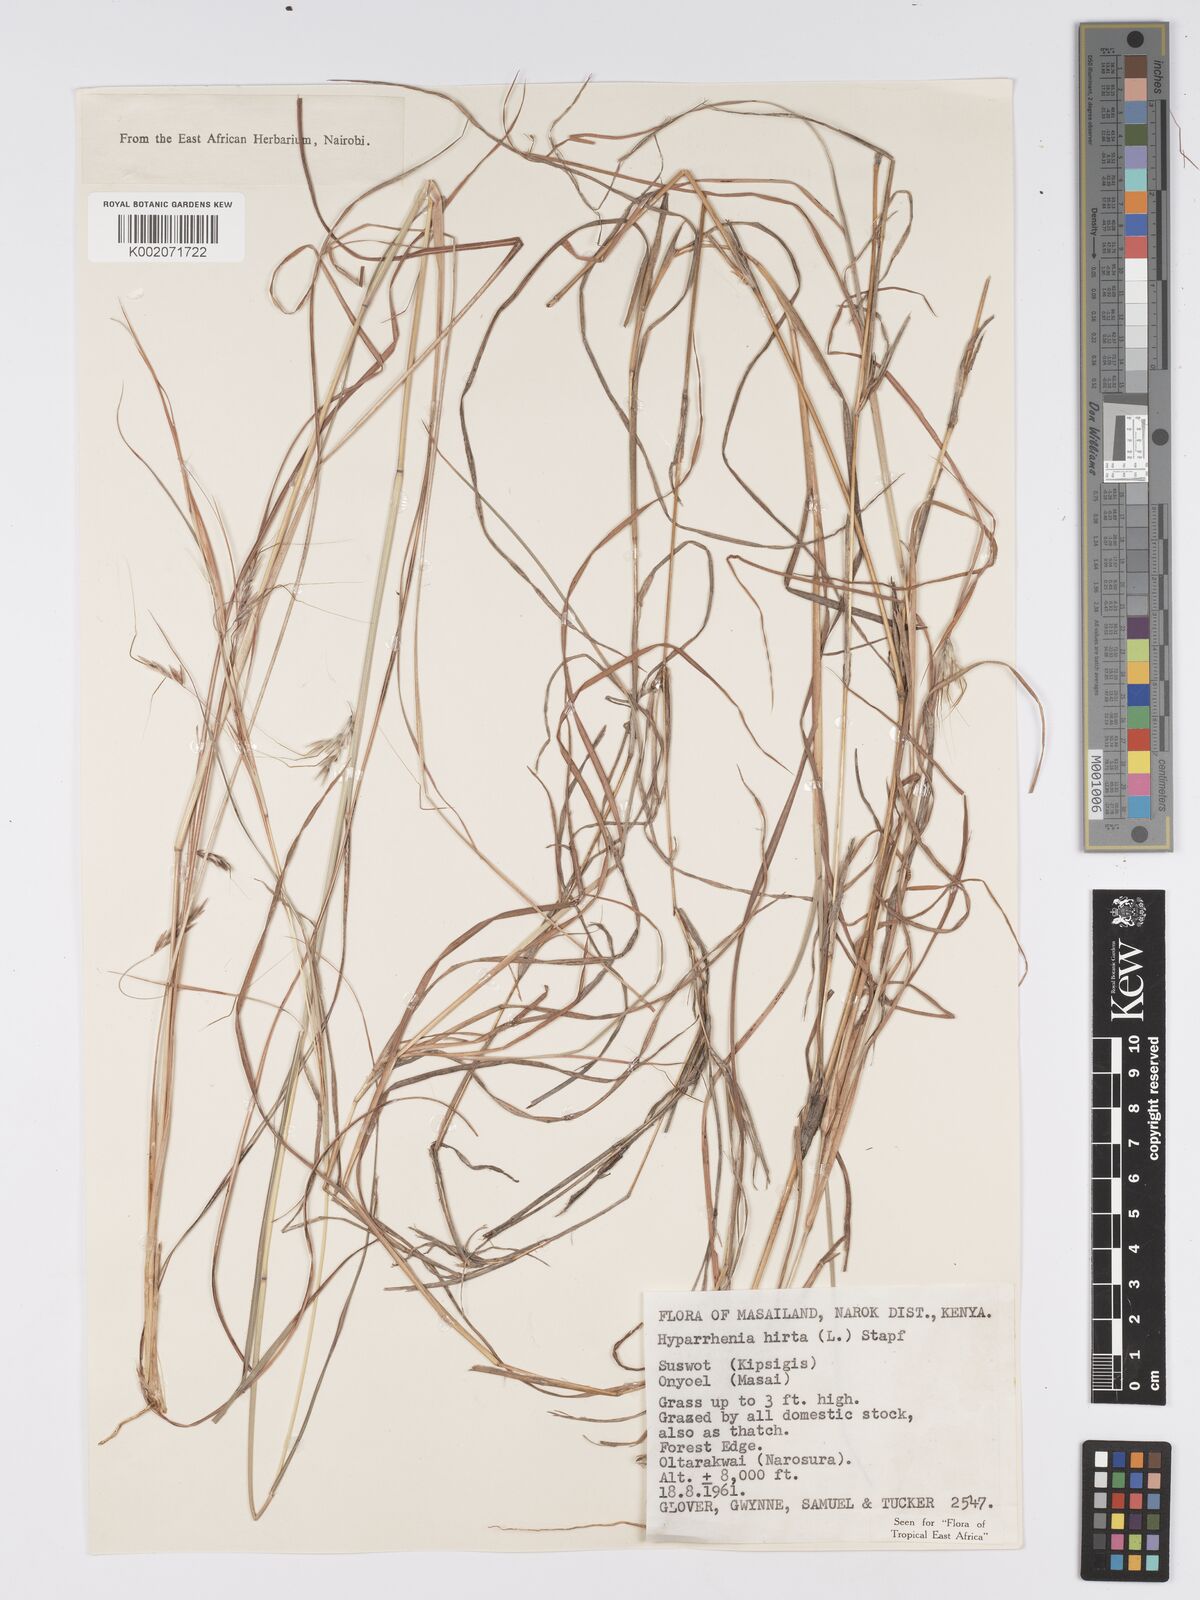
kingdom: Plantae
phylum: Tracheophyta
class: Liliopsida
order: Poales
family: Poaceae
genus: Hyparrhenia
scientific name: Hyparrhenia hirta
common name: Thatching grass
